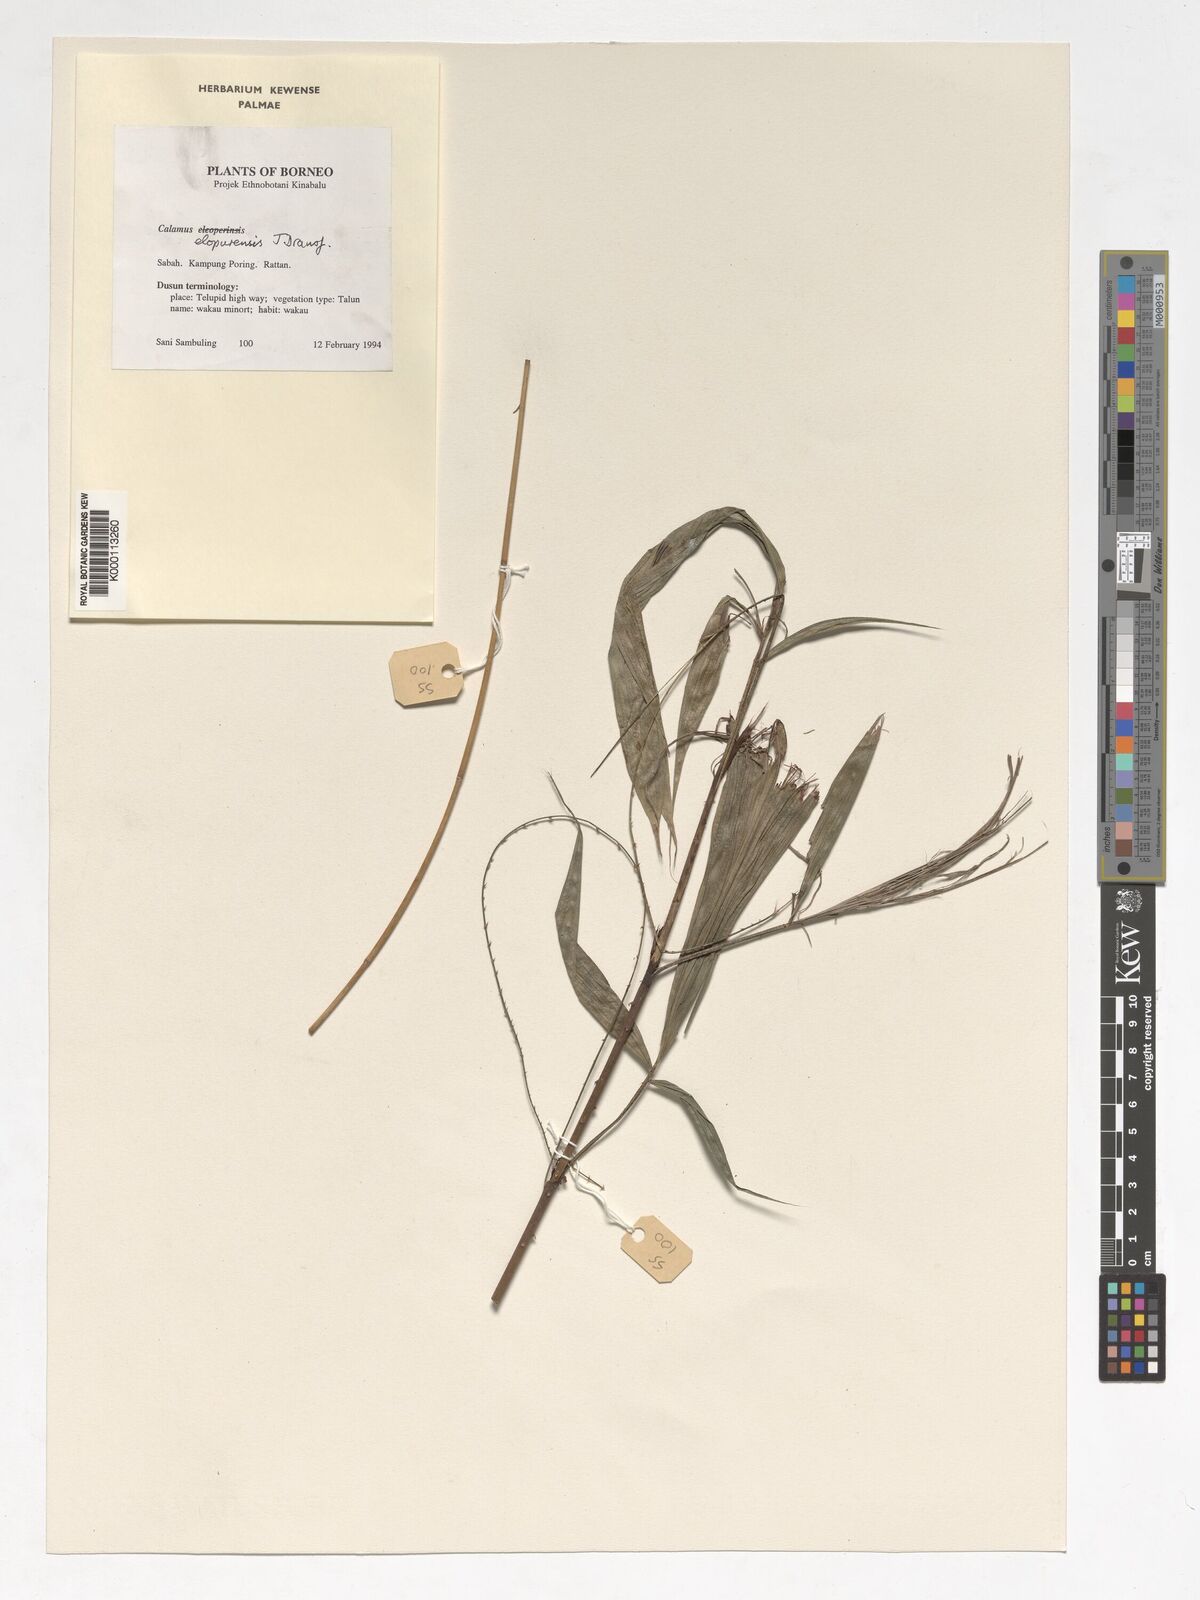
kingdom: Plantae
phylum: Tracheophyta
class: Liliopsida
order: Arecales
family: Arecaceae
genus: Calamus
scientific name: Calamus javensis
